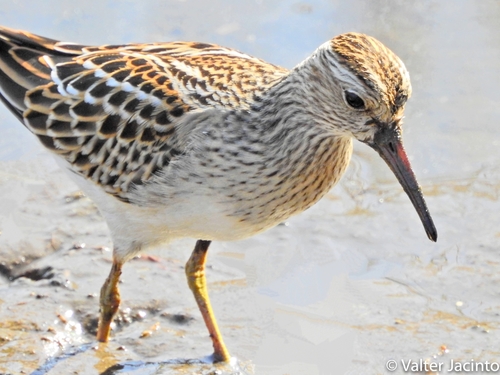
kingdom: Animalia
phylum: Chordata
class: Aves
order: Charadriiformes
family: Scolopacidae
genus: Calidris
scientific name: Calidris melanotos
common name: Pectoral sandpiper
